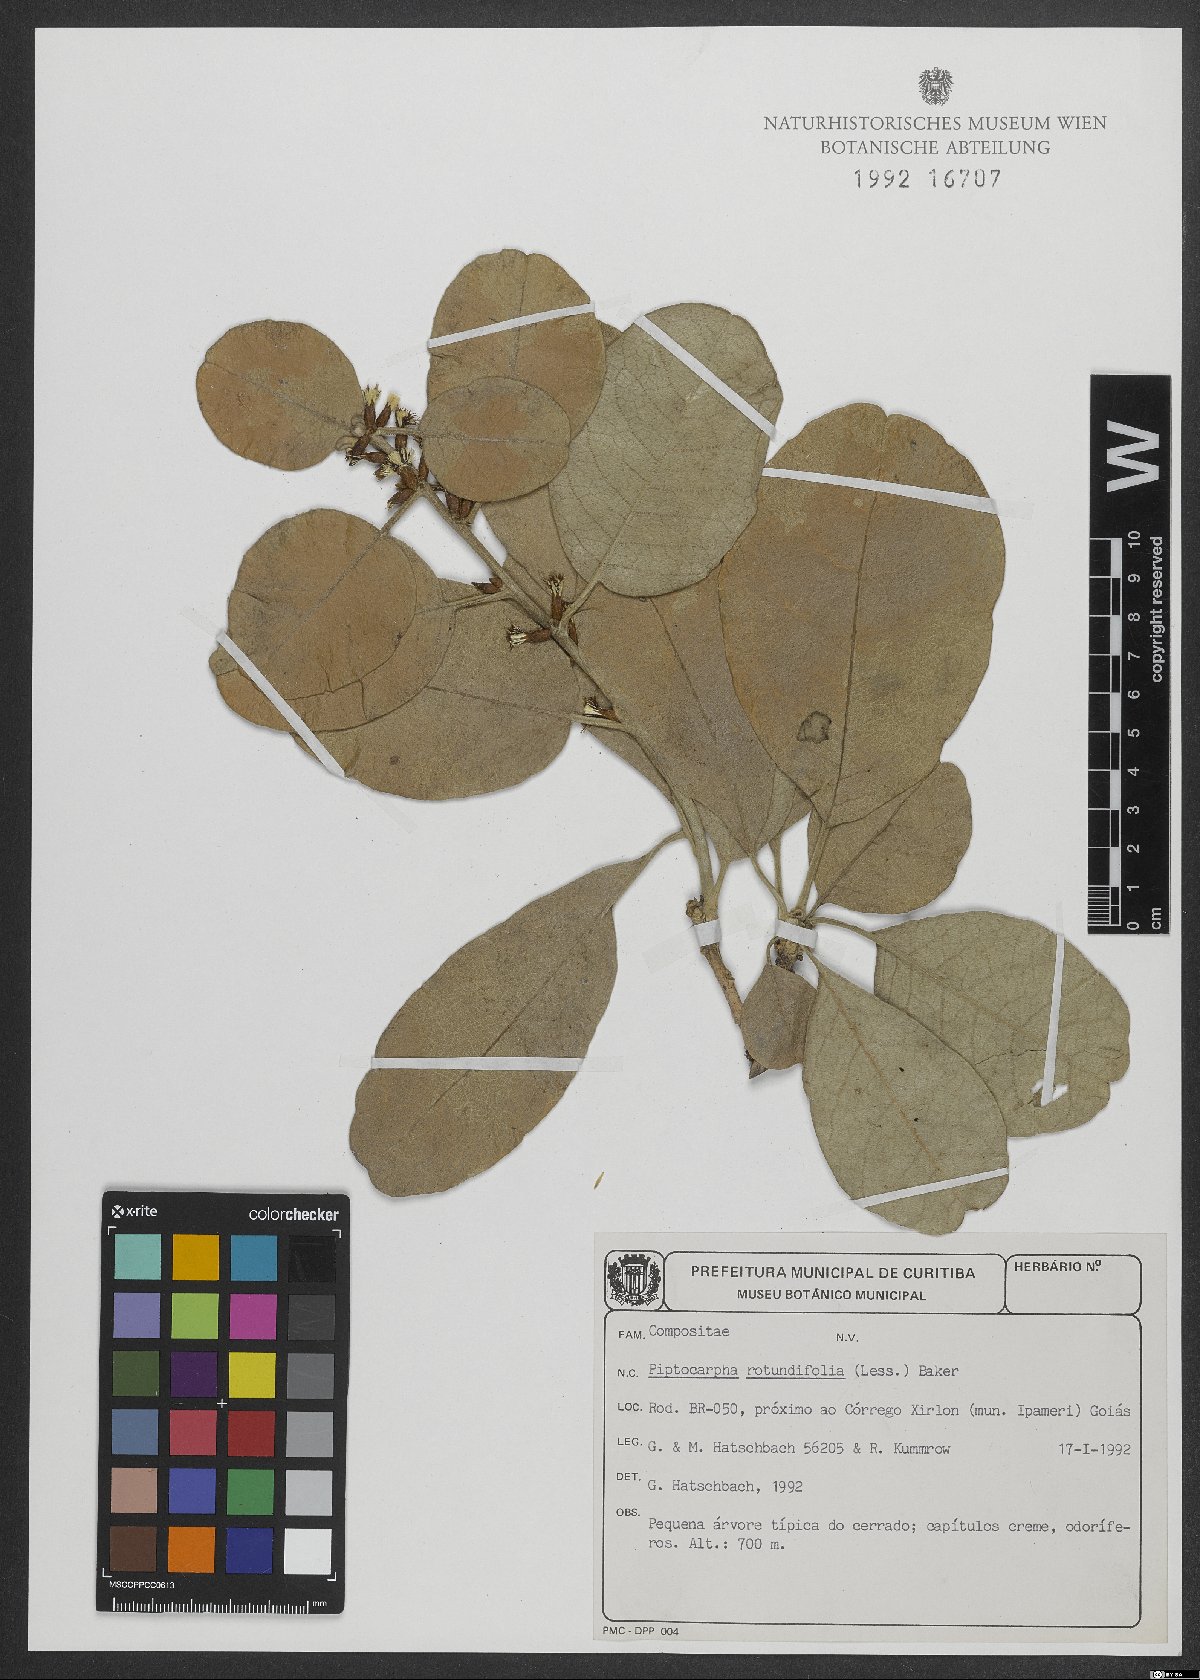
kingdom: Plantae
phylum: Tracheophyta
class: Magnoliopsida
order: Asterales
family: Asteraceae
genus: Piptocarpha
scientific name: Piptocarpha rotundifolia
